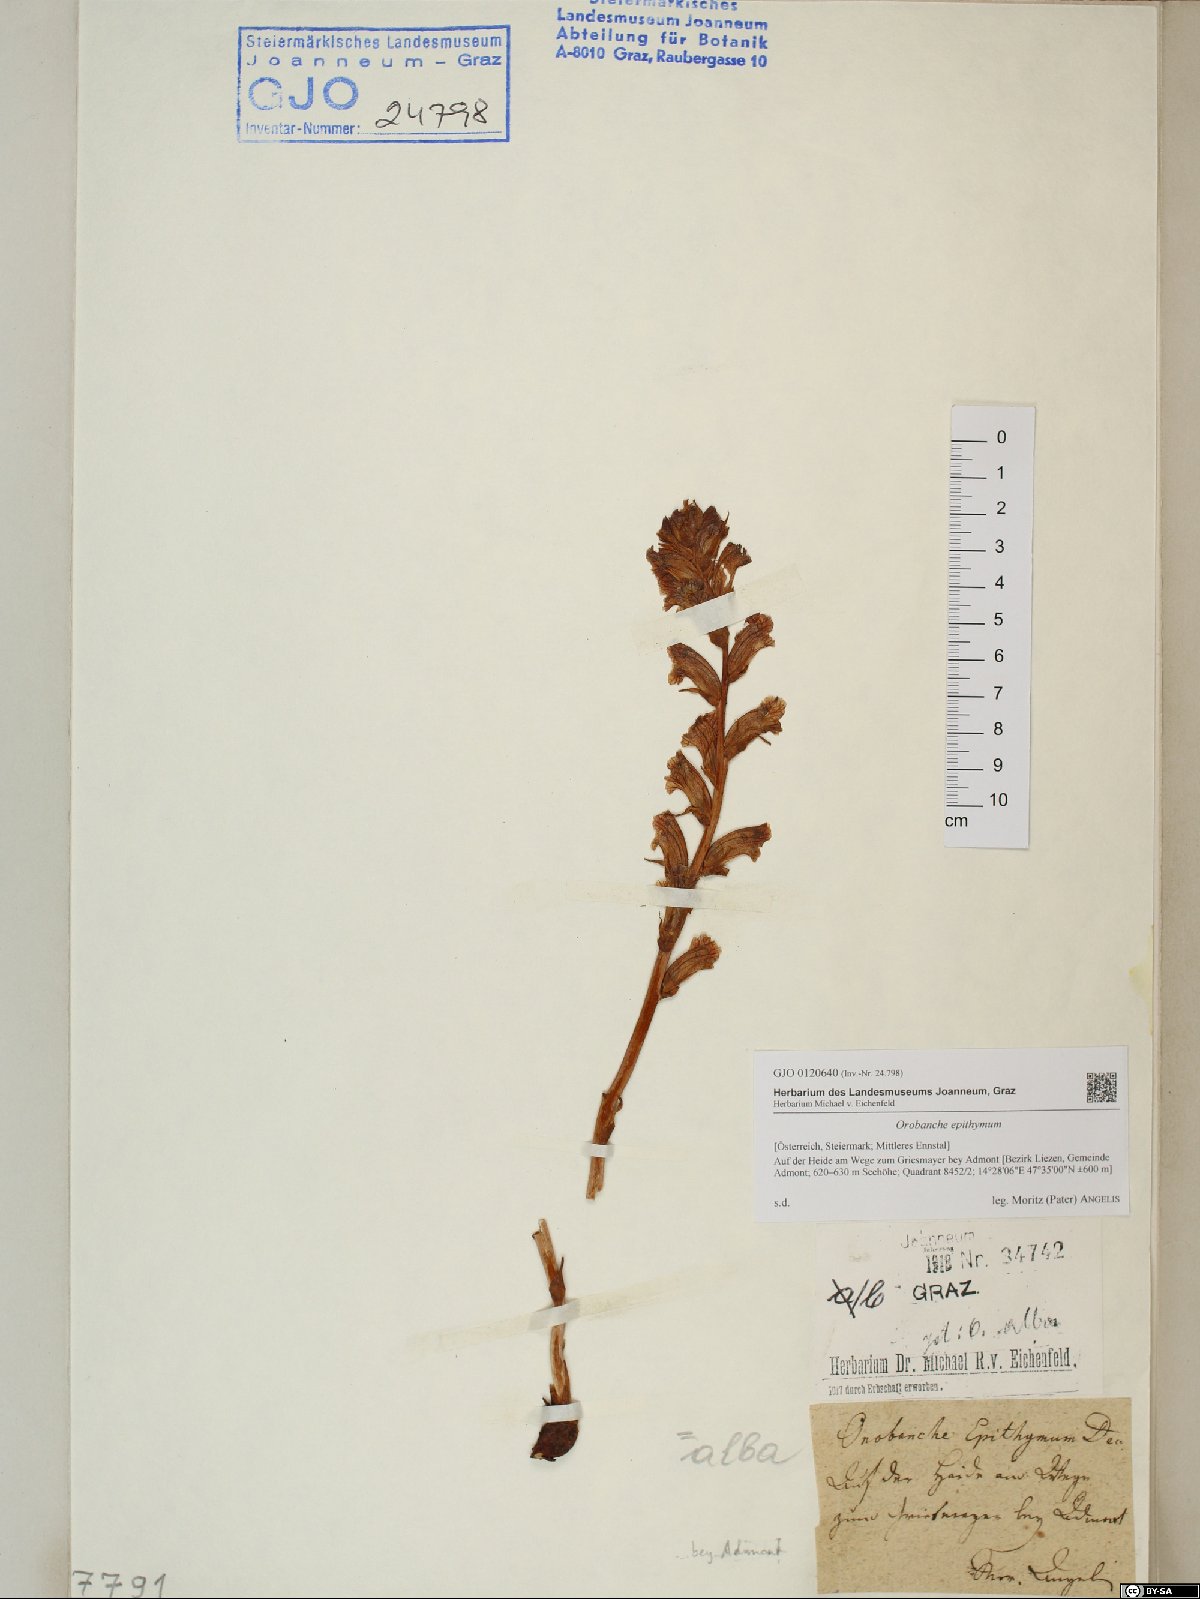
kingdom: Plantae
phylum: Tracheophyta
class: Magnoliopsida
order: Lamiales
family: Orobanchaceae
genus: Orobanche
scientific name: Orobanche alba
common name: Thyme broomrape
